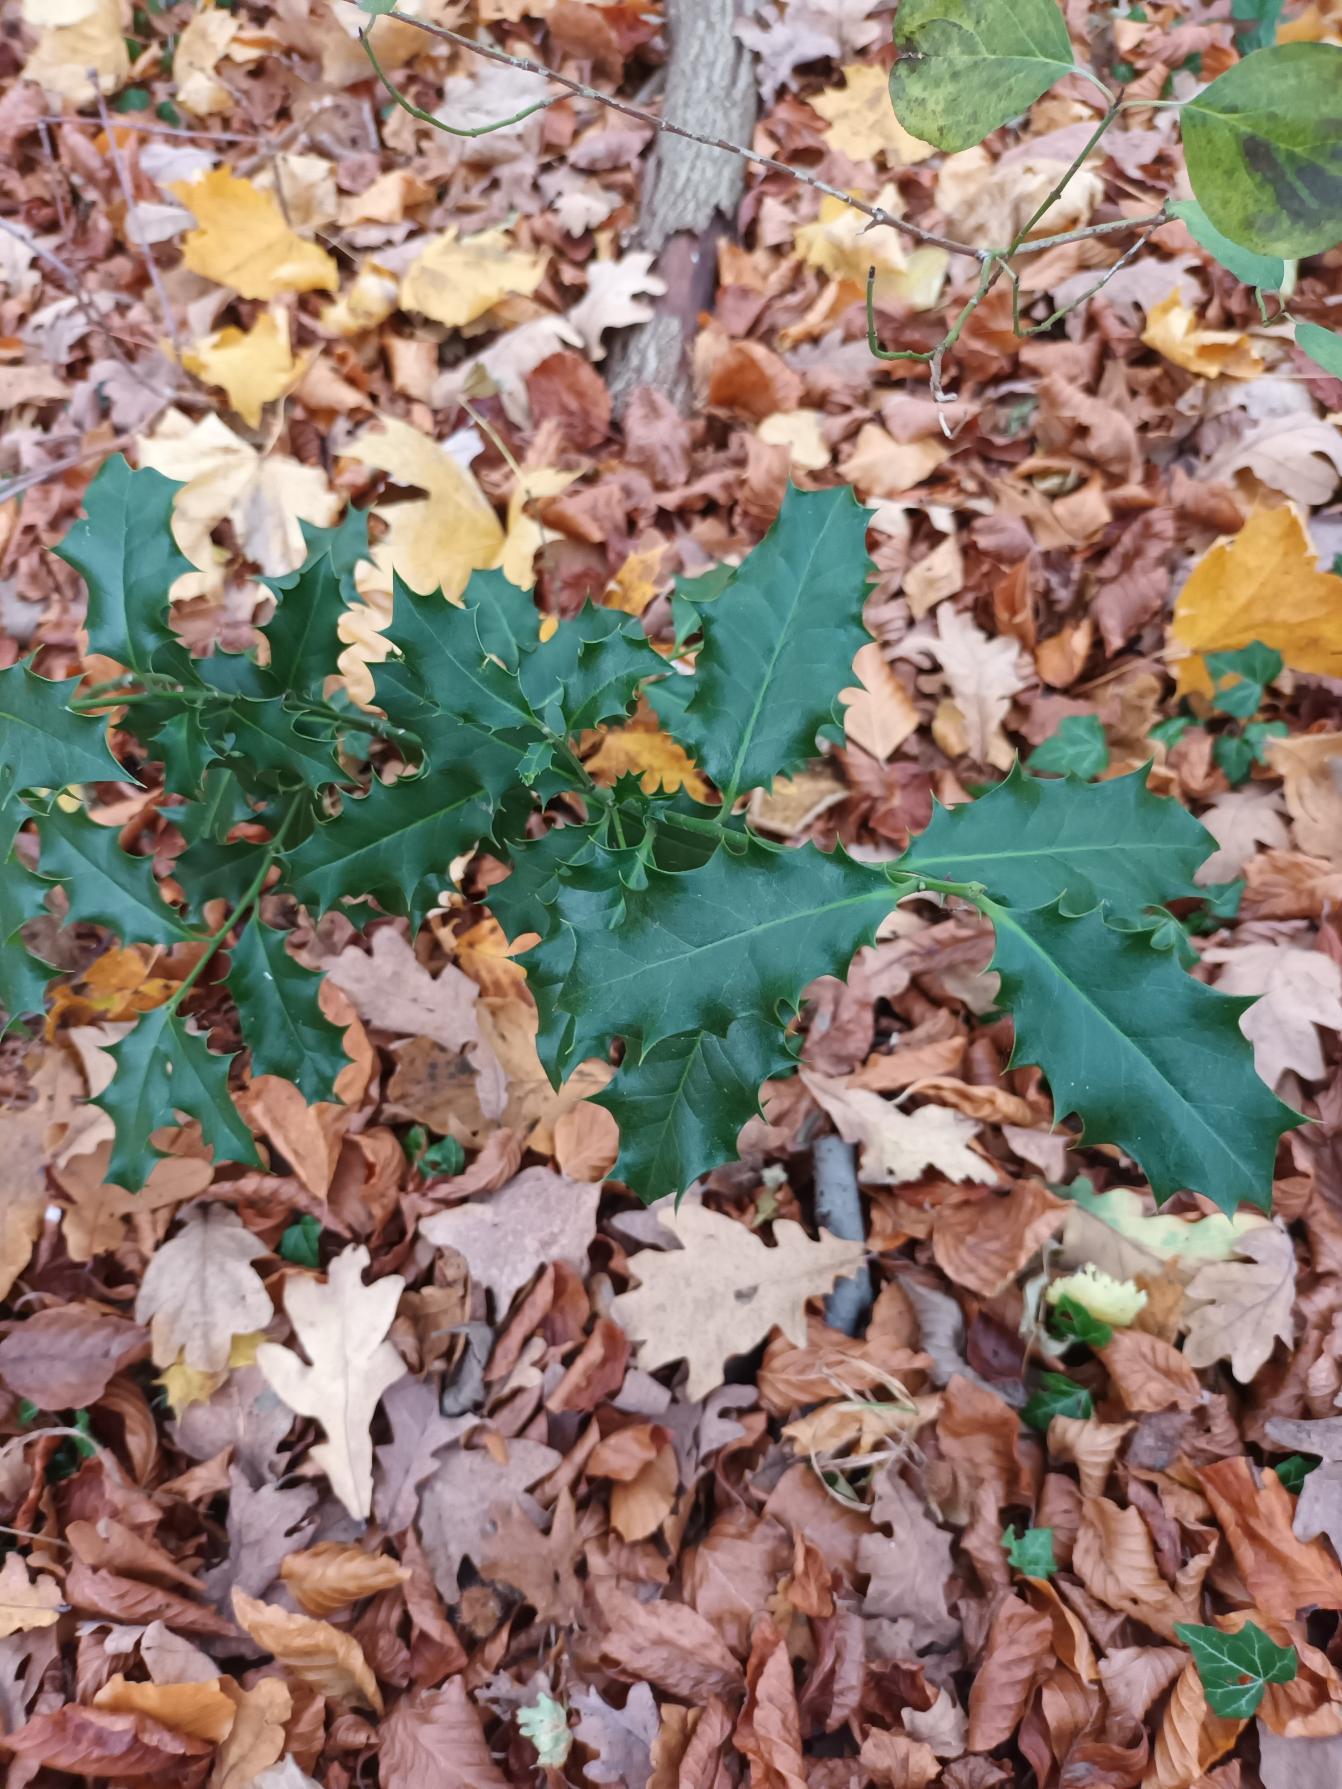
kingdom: Plantae
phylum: Tracheophyta
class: Magnoliopsida
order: Aquifoliales
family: Aquifoliaceae
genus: Ilex
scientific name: Ilex aquifolium
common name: Kristtorn
